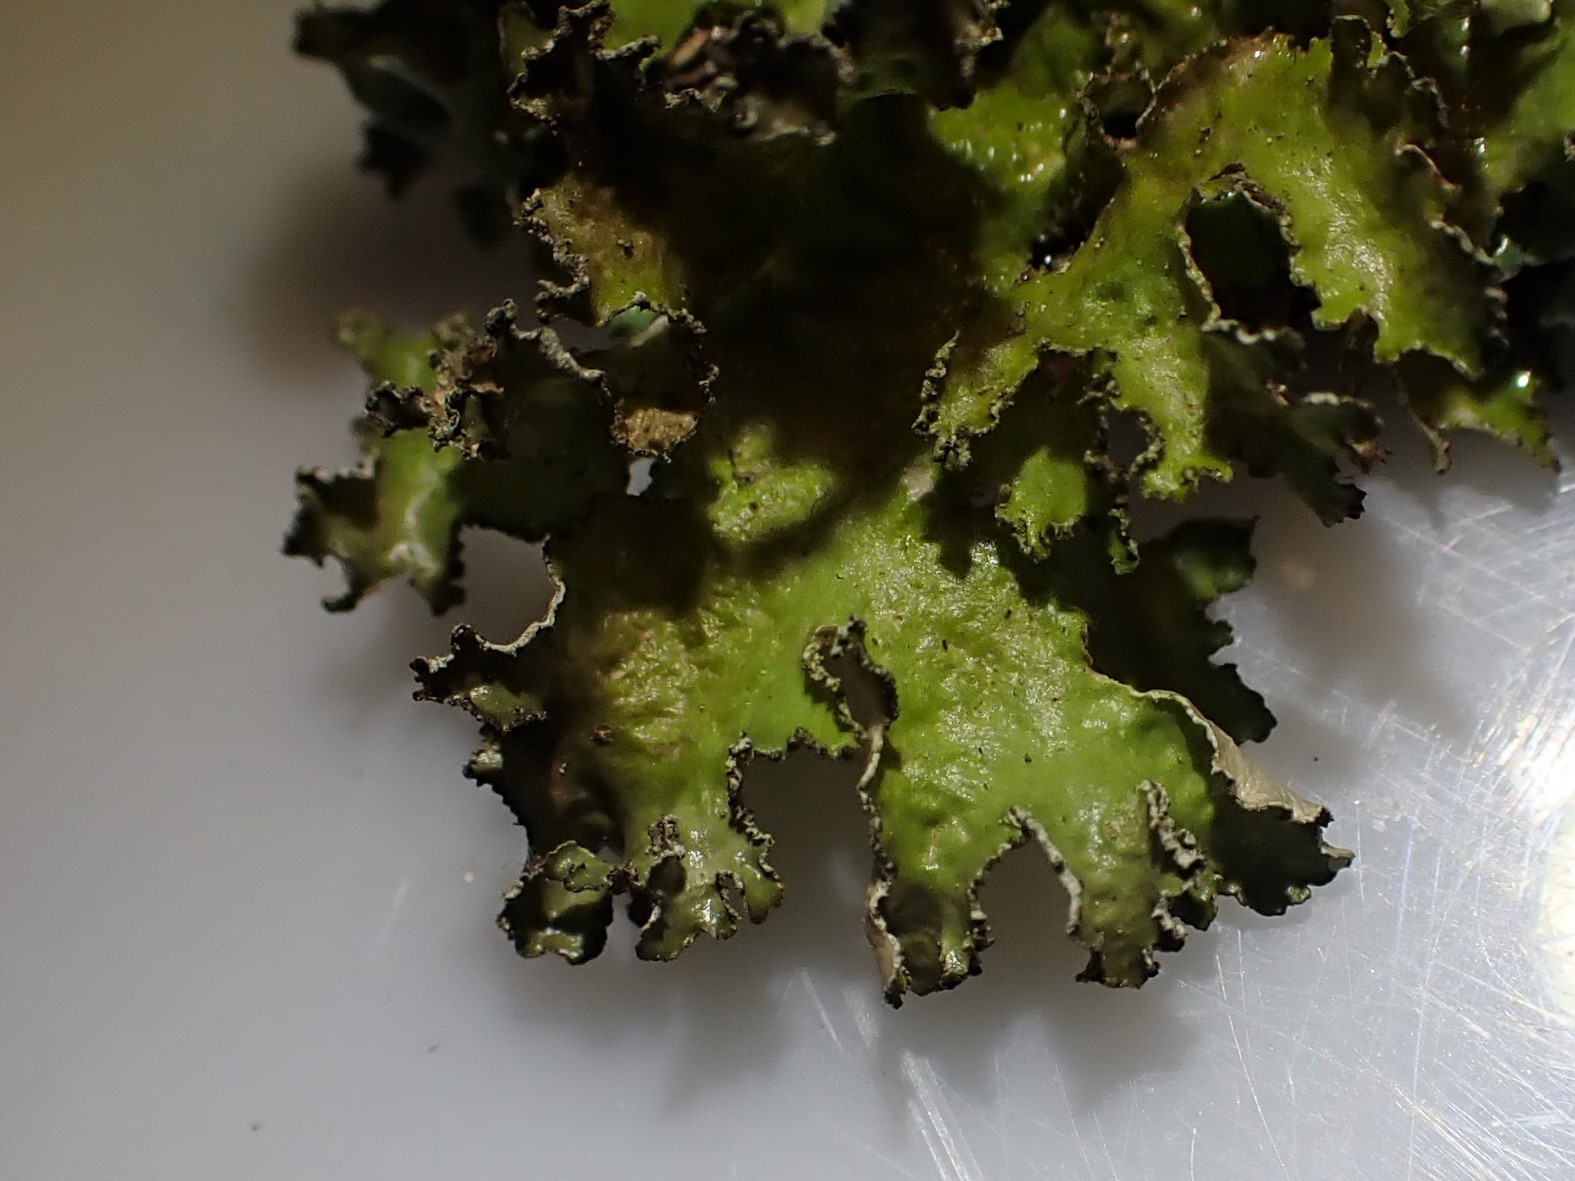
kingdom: Fungi
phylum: Ascomycota
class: Lecanoromycetes
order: Lecanorales
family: Parmeliaceae
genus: Nephromopsis
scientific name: Nephromopsis chlorophylla
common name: olivenbrun kruslav
